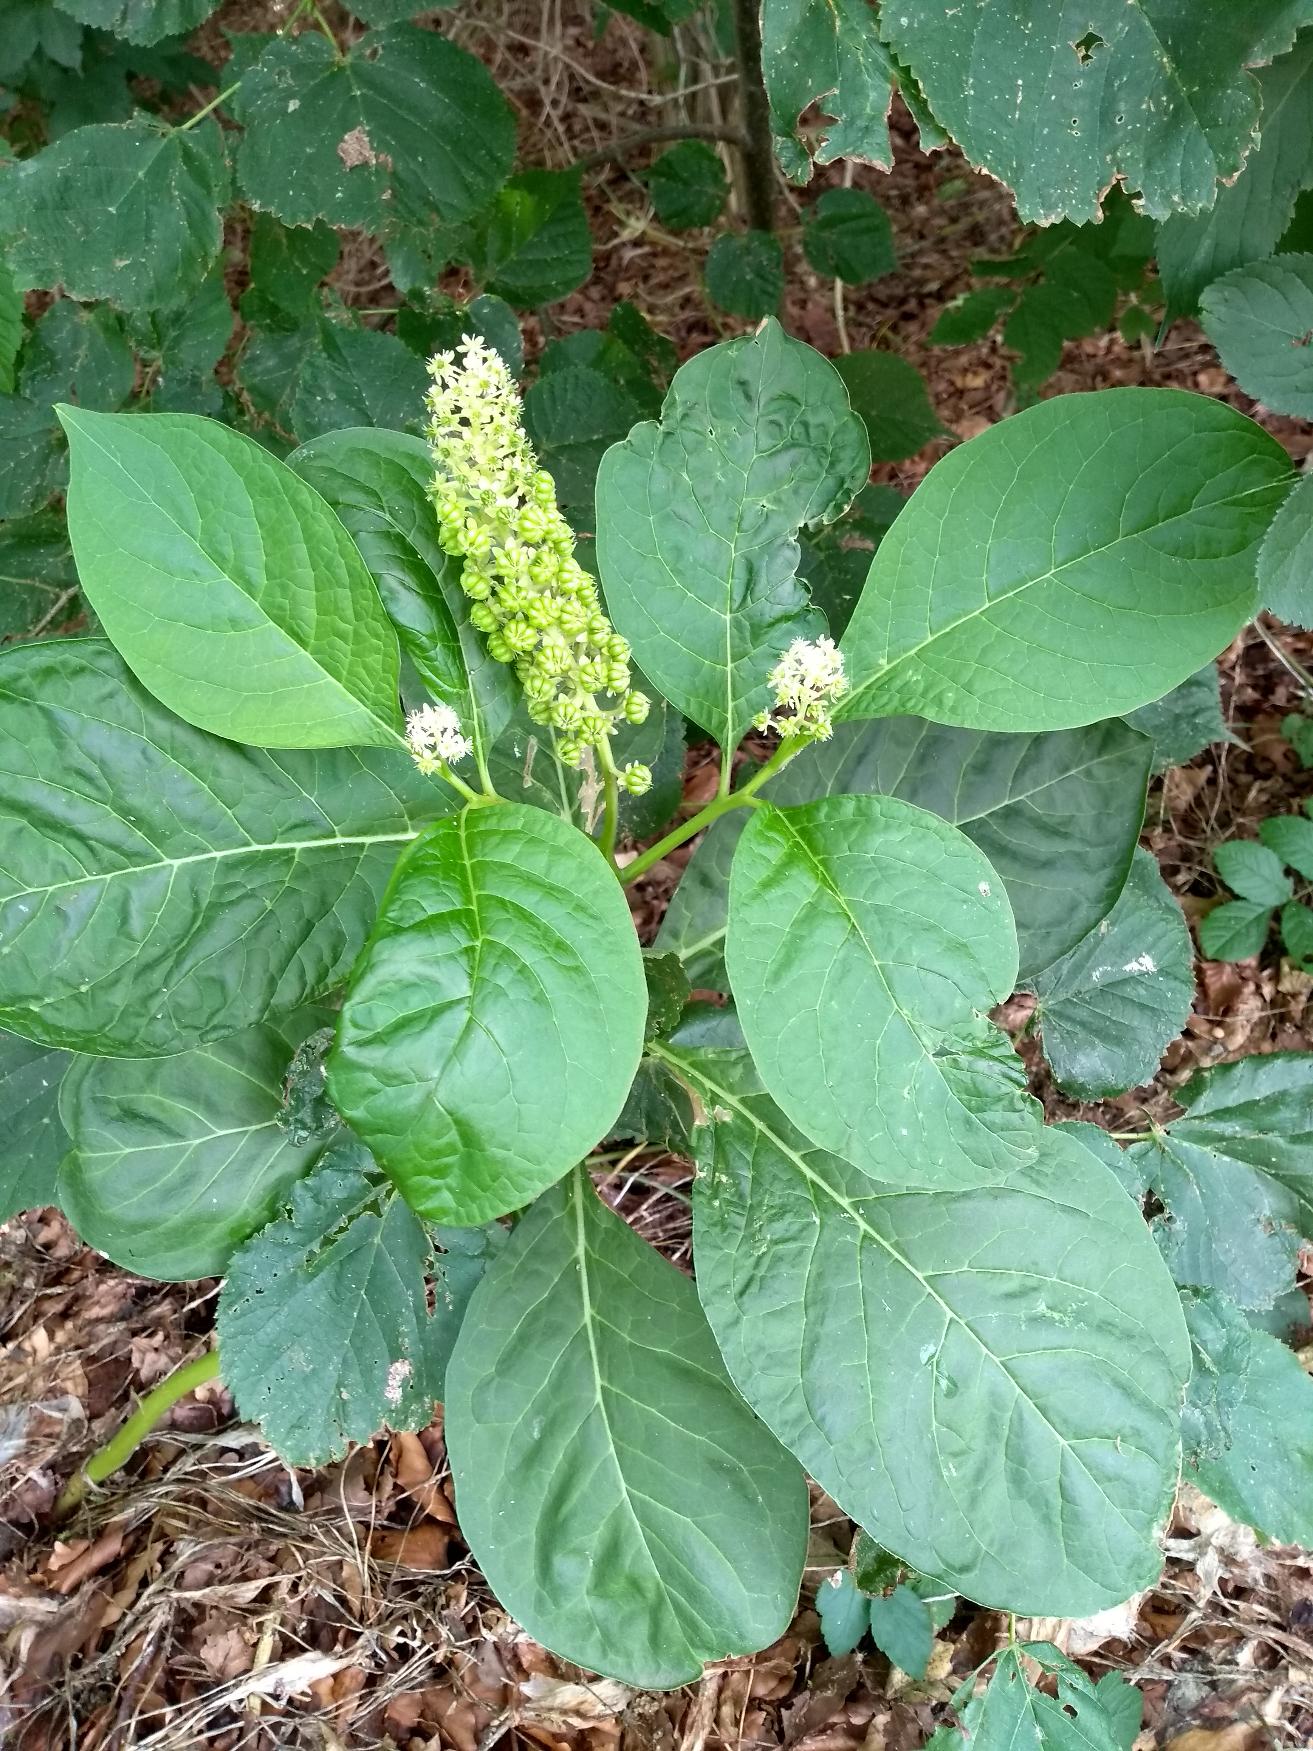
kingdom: Plantae
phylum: Tracheophyta
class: Magnoliopsida
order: Caryophyllales
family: Phytolaccaceae
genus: Phytolacca
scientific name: Phytolacca acinosa
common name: Asiatisk kermesbær
